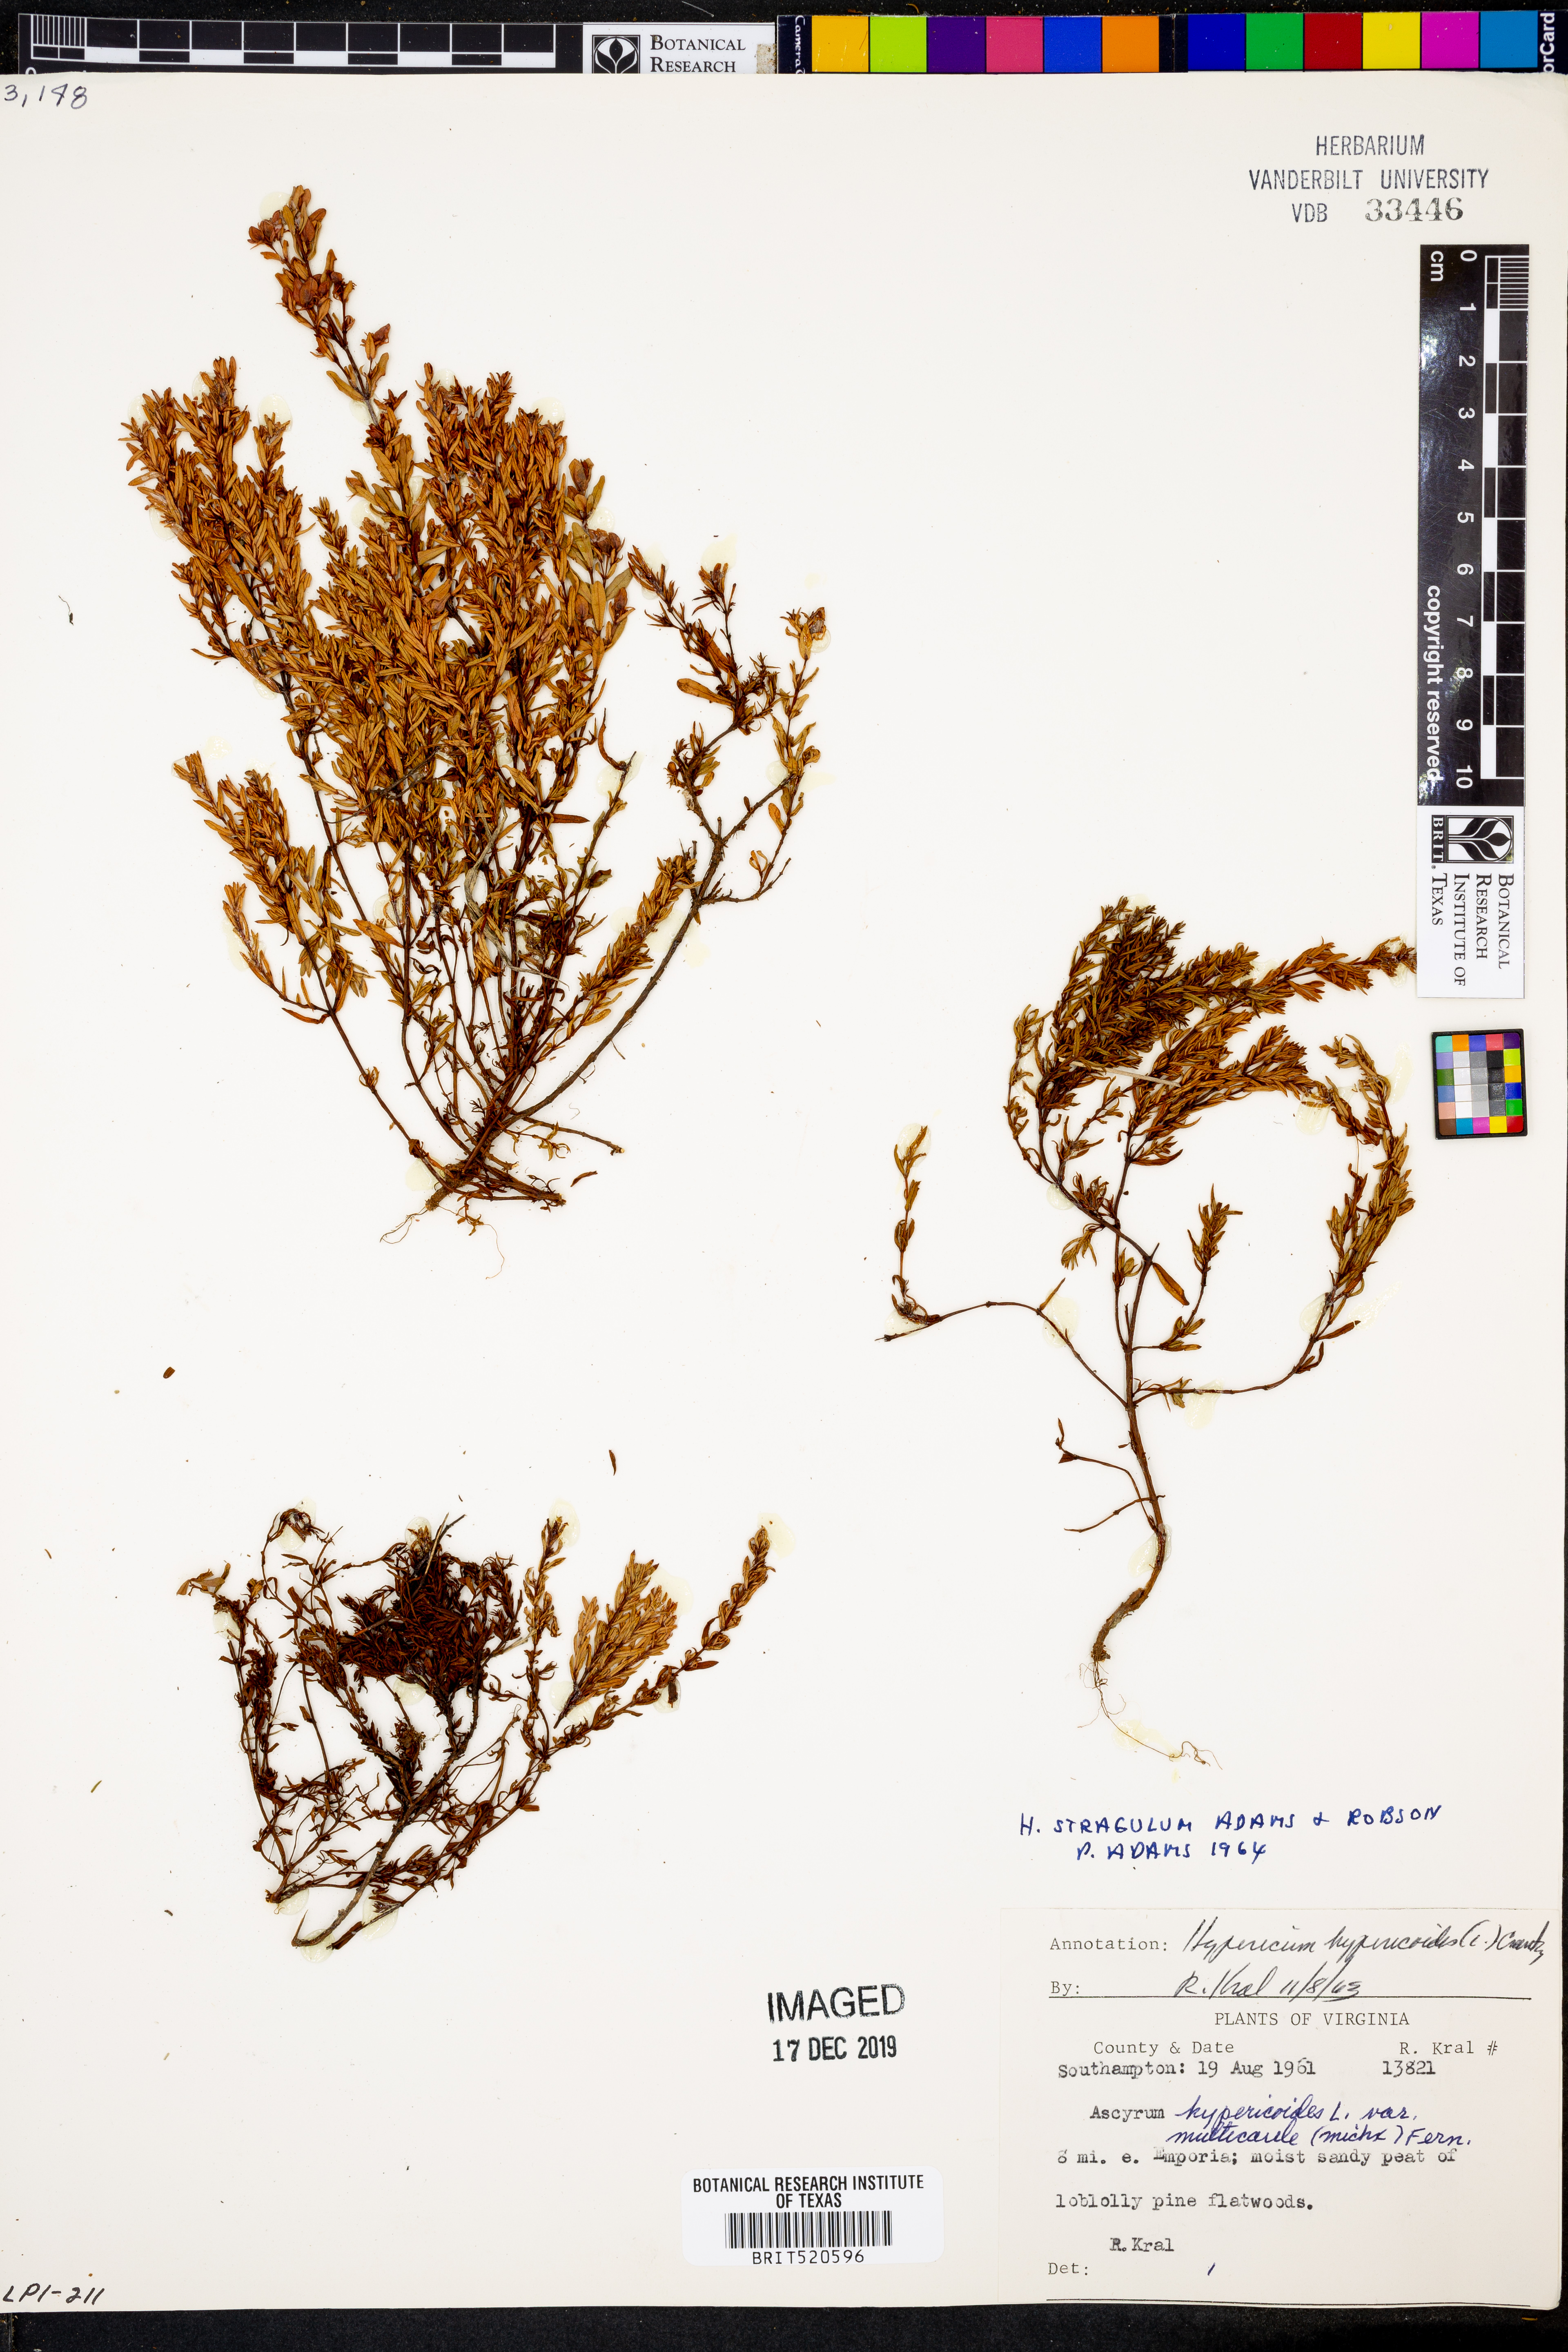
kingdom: Plantae
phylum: Tracheophyta
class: Magnoliopsida
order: Malpighiales
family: Hypericaceae
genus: Hypericum
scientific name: Hypericum hypericoides
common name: St. andrew's cross
